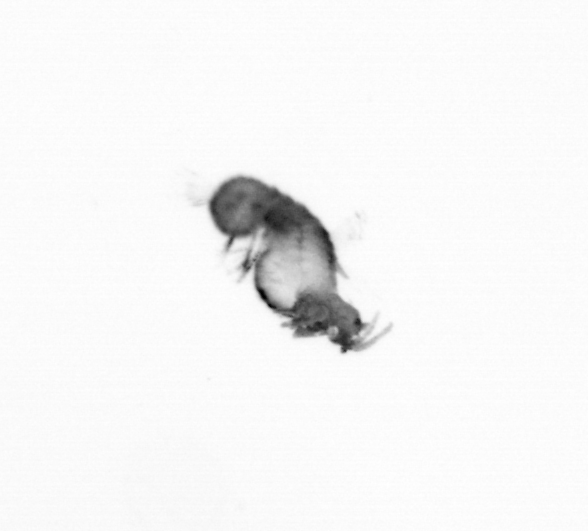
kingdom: Animalia
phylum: Annelida
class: Polychaeta
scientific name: Polychaeta
